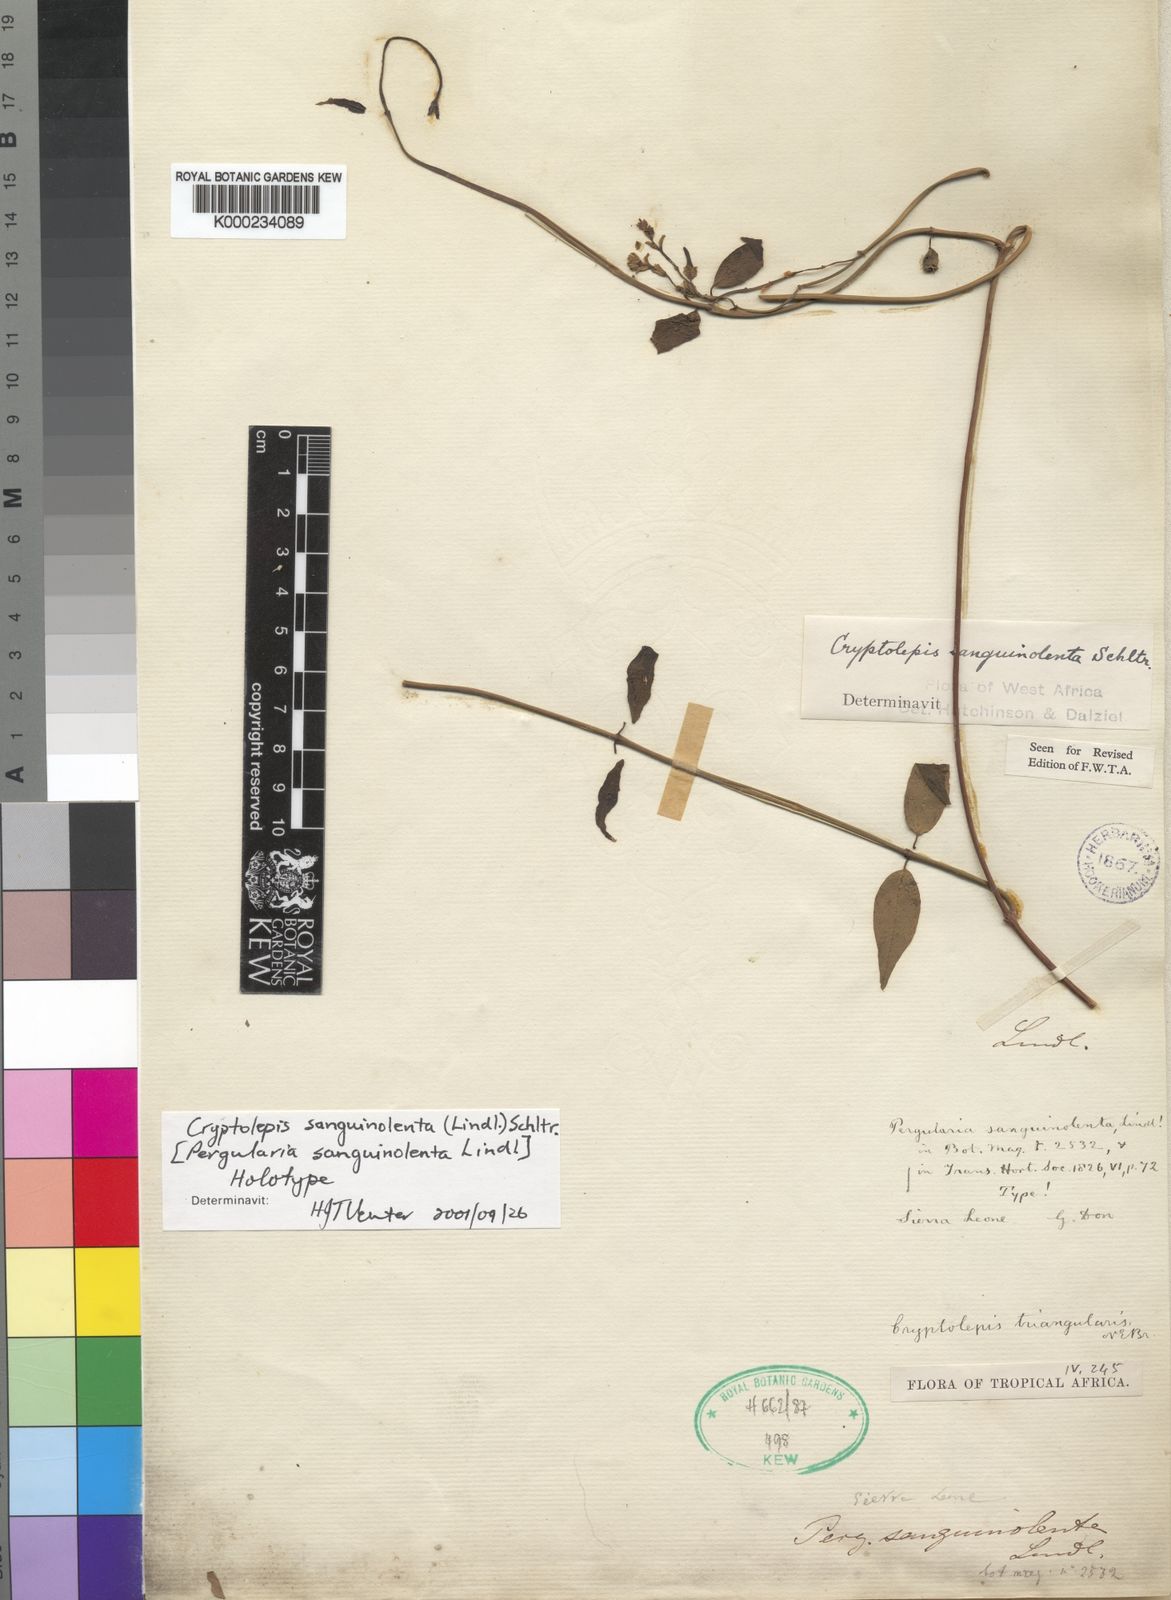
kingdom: Plantae
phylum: Tracheophyta
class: Magnoliopsida
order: Gentianales
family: Apocynaceae
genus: Cryptolepis
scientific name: Cryptolepis sanguinolenta
